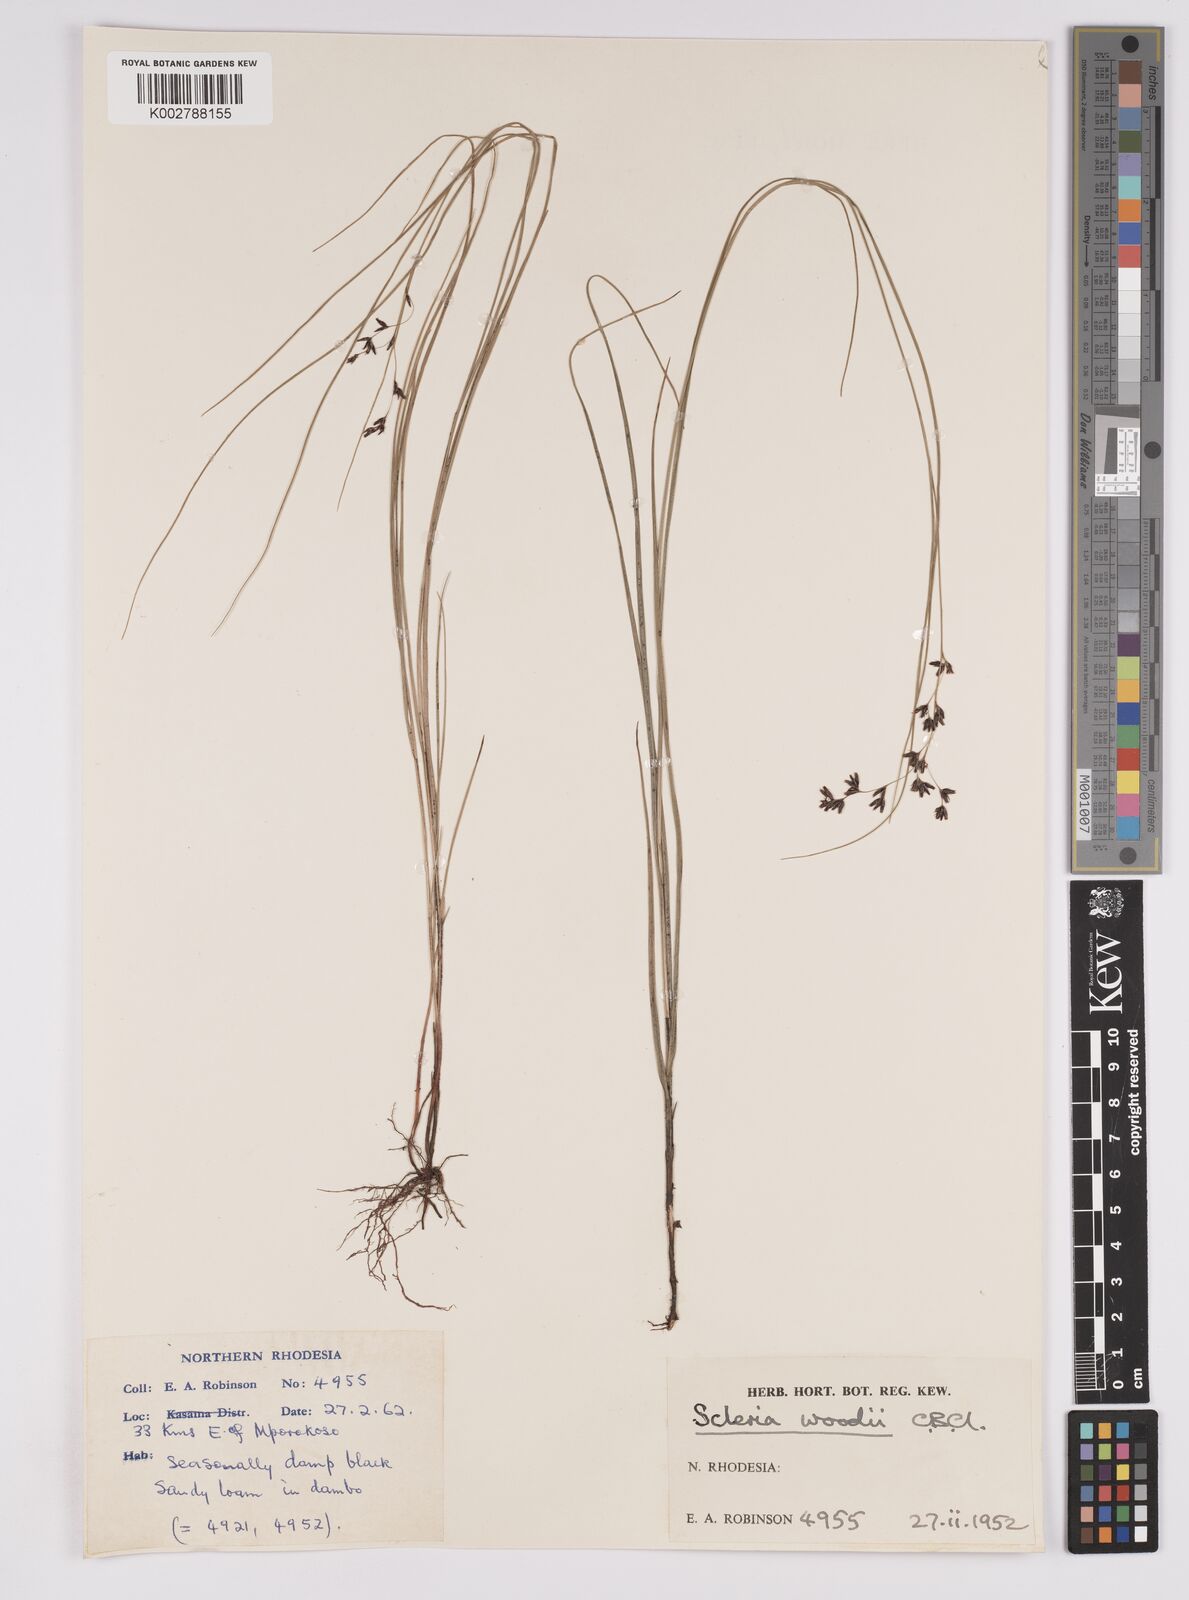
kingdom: Plantae
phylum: Tracheophyta
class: Liliopsida
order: Poales
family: Cyperaceae
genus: Scleria
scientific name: Scleria polyrrhiza
